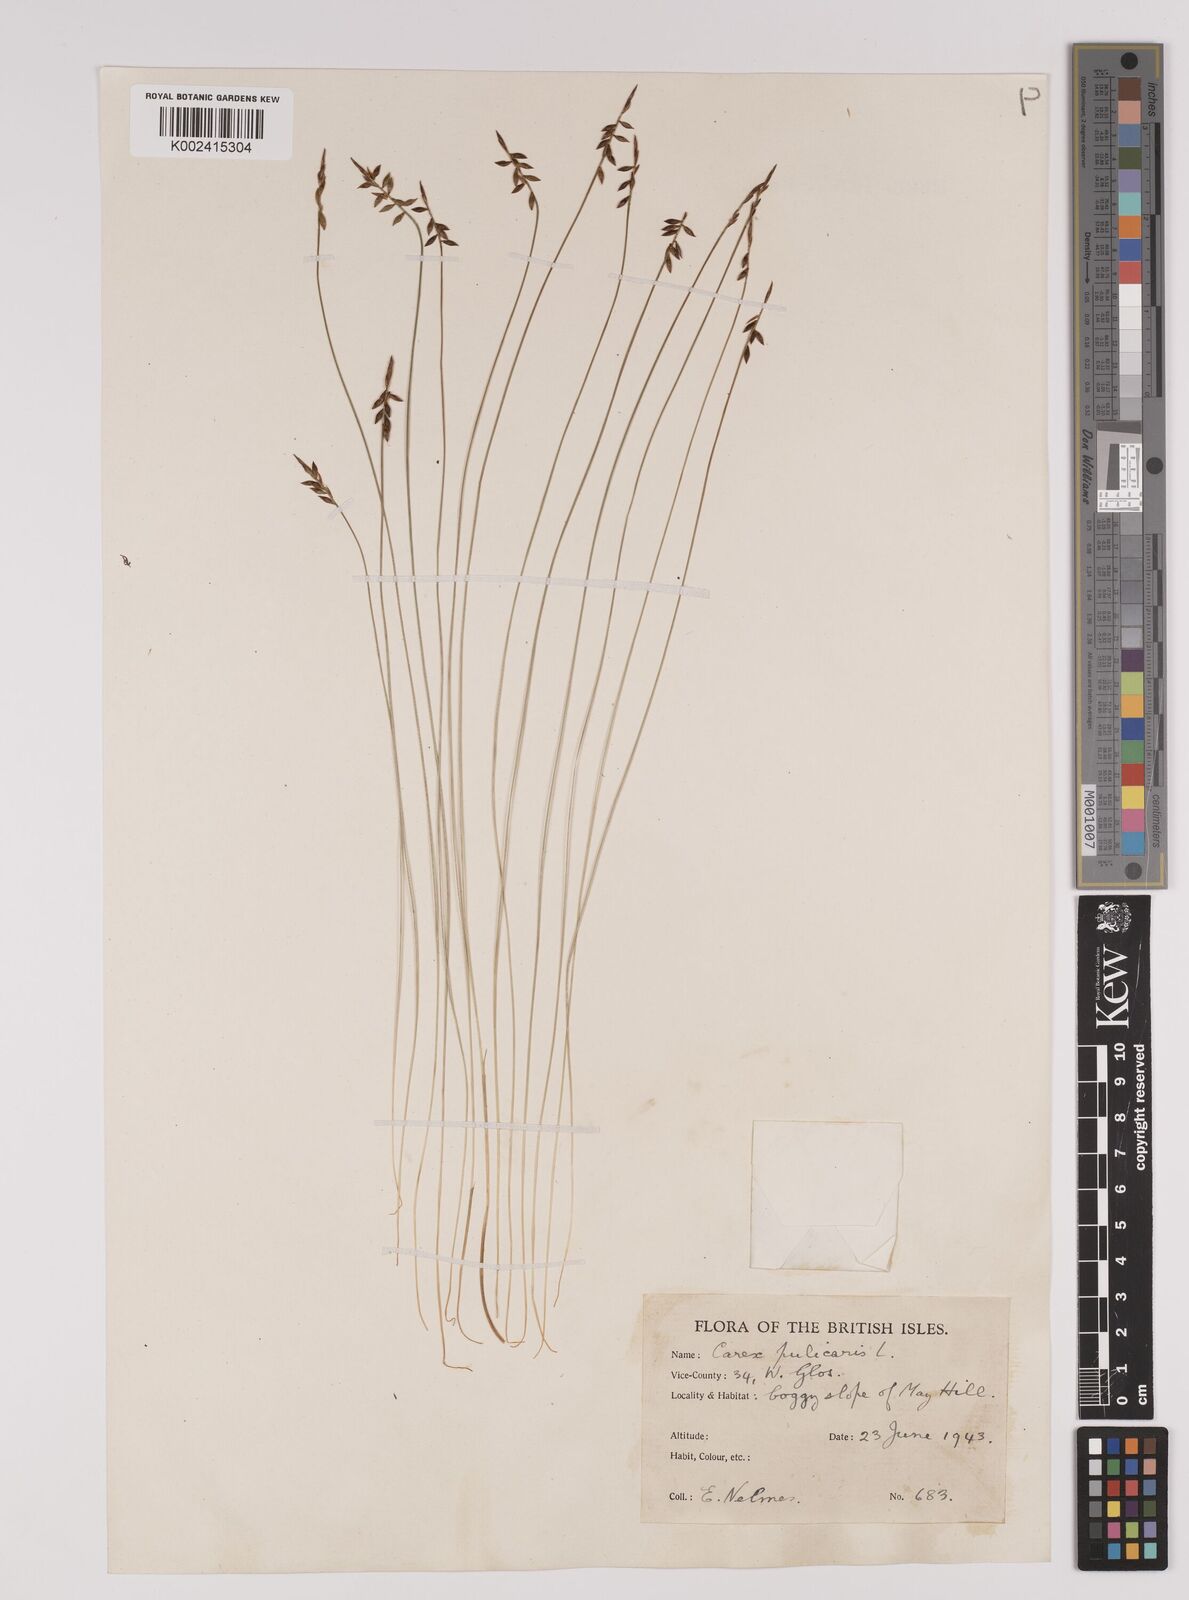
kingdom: Plantae
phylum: Tracheophyta
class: Liliopsida
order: Poales
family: Cyperaceae
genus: Carex
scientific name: Carex pulicaris
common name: Flea sedge
